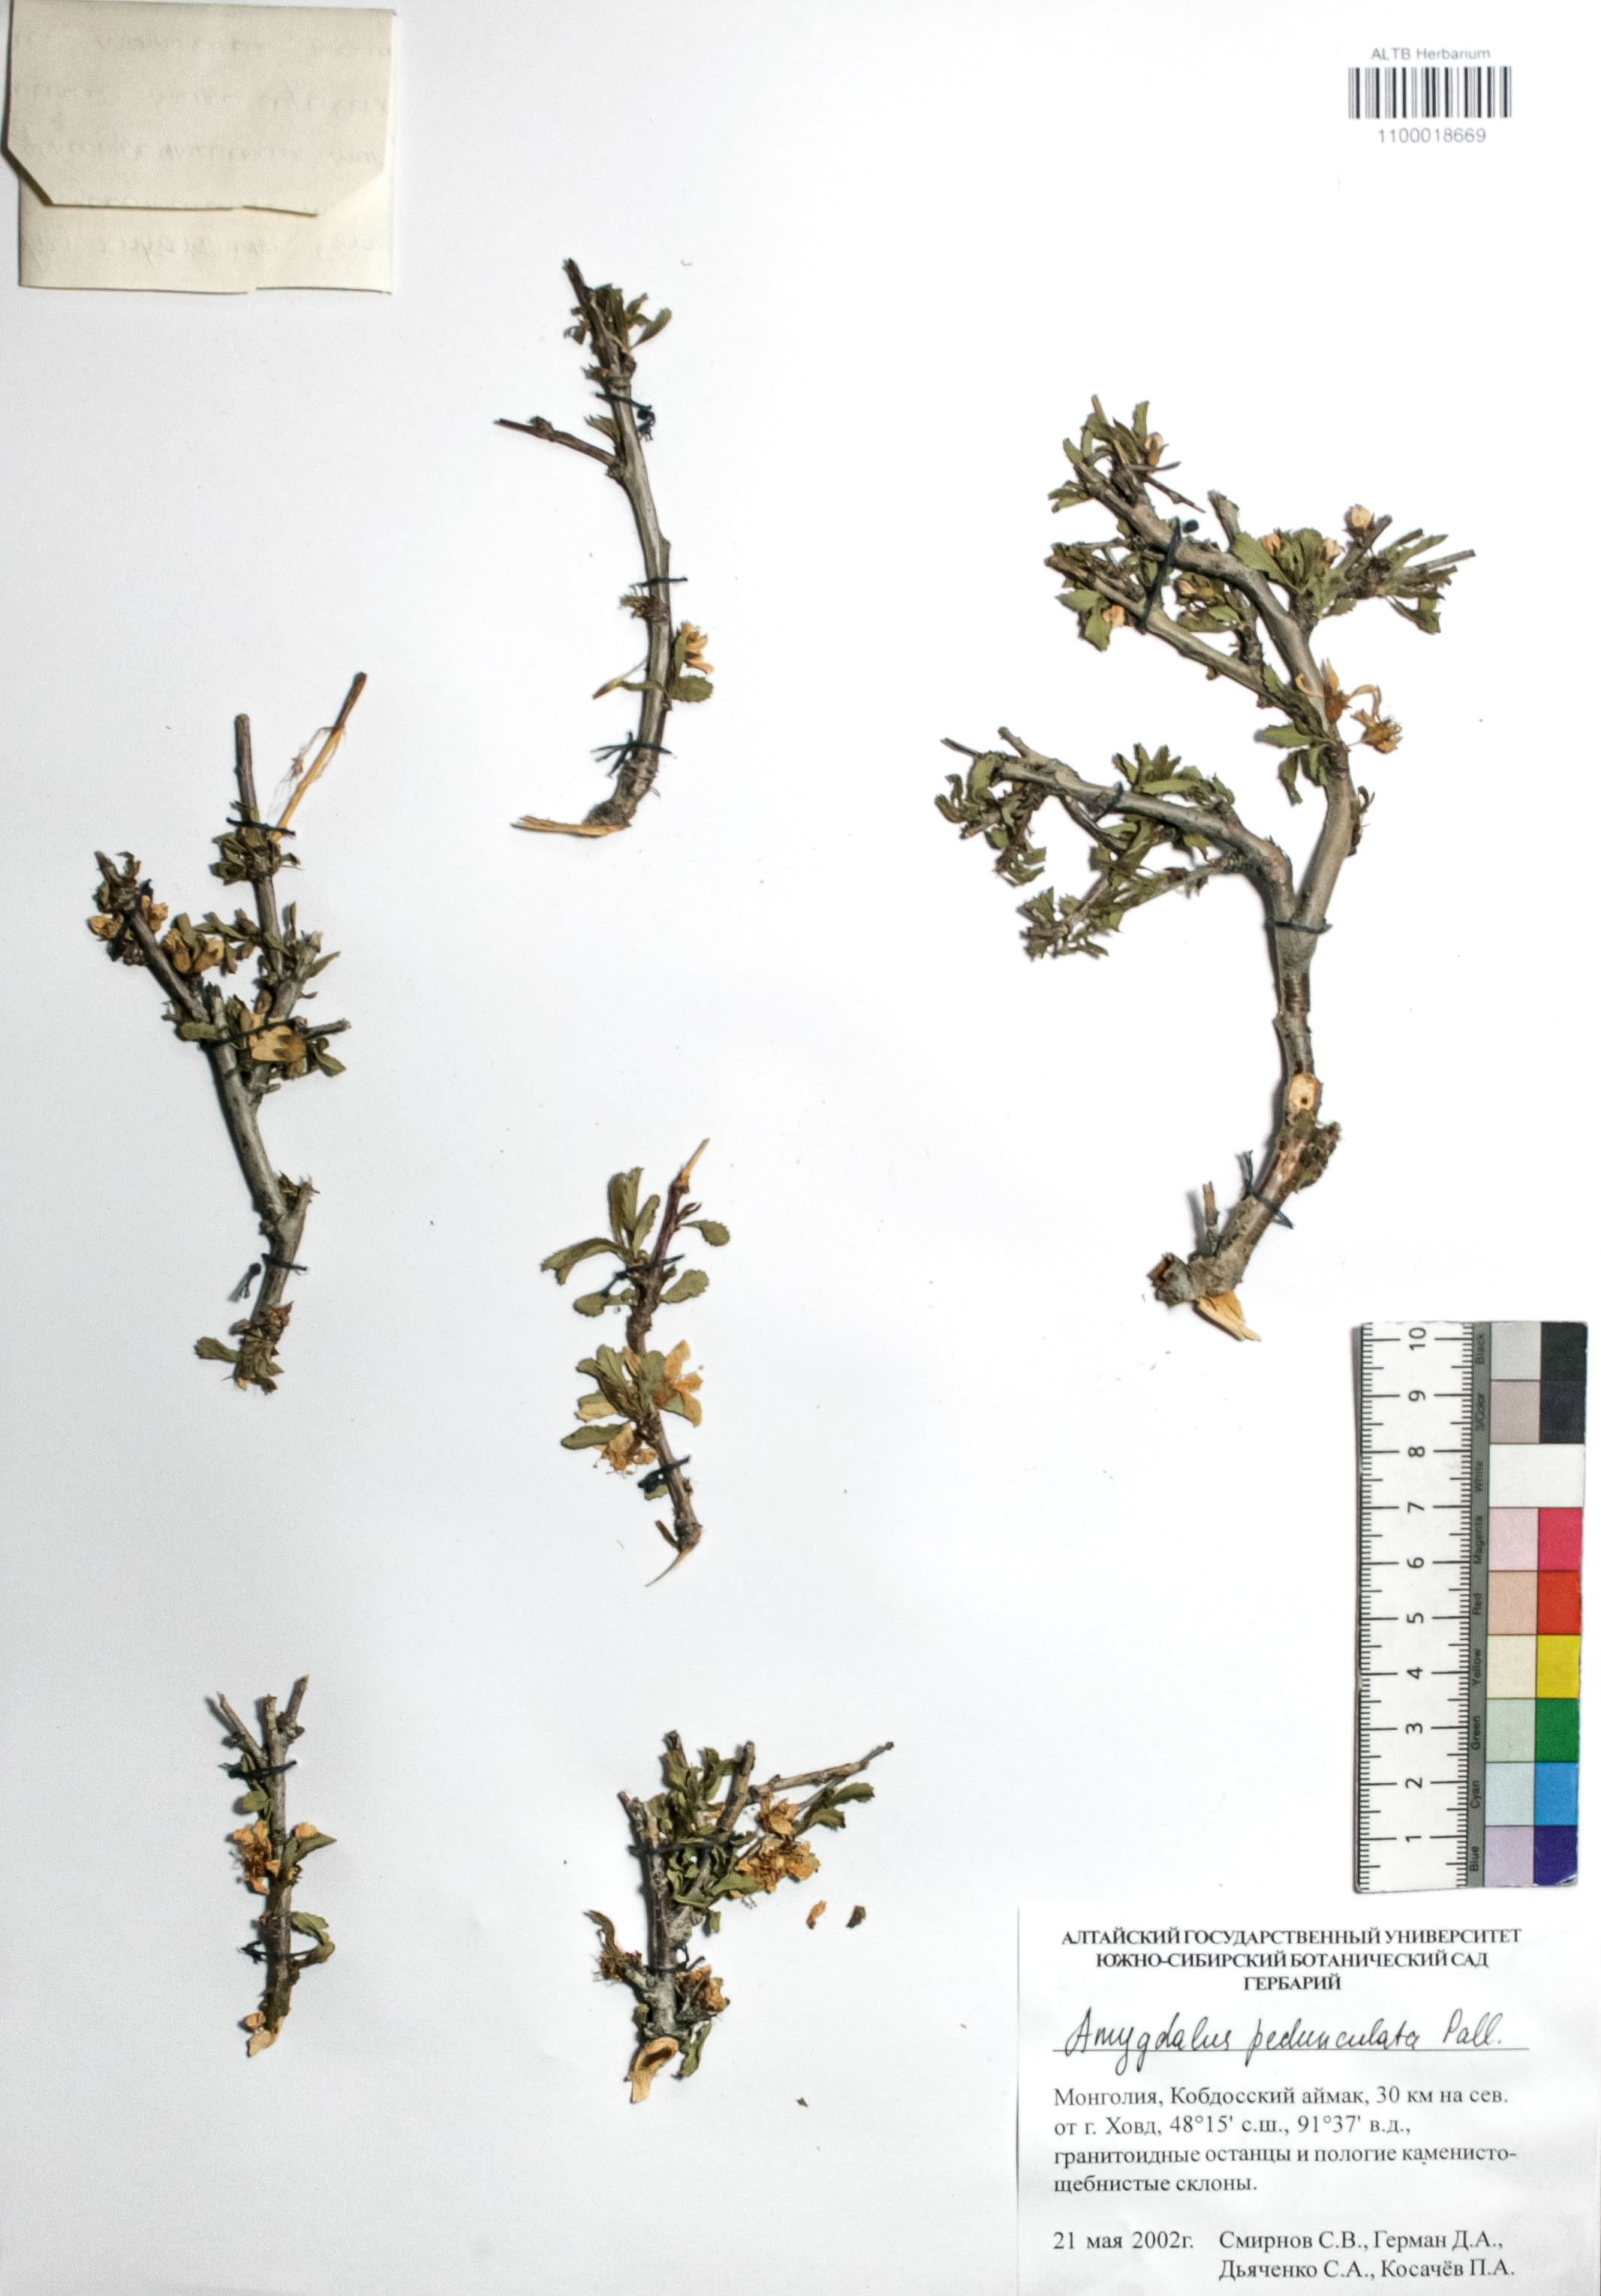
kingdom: Plantae
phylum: Tracheophyta
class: Magnoliopsida
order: Rosales
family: Rosaceae
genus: Prunus
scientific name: Prunus pedunculata
